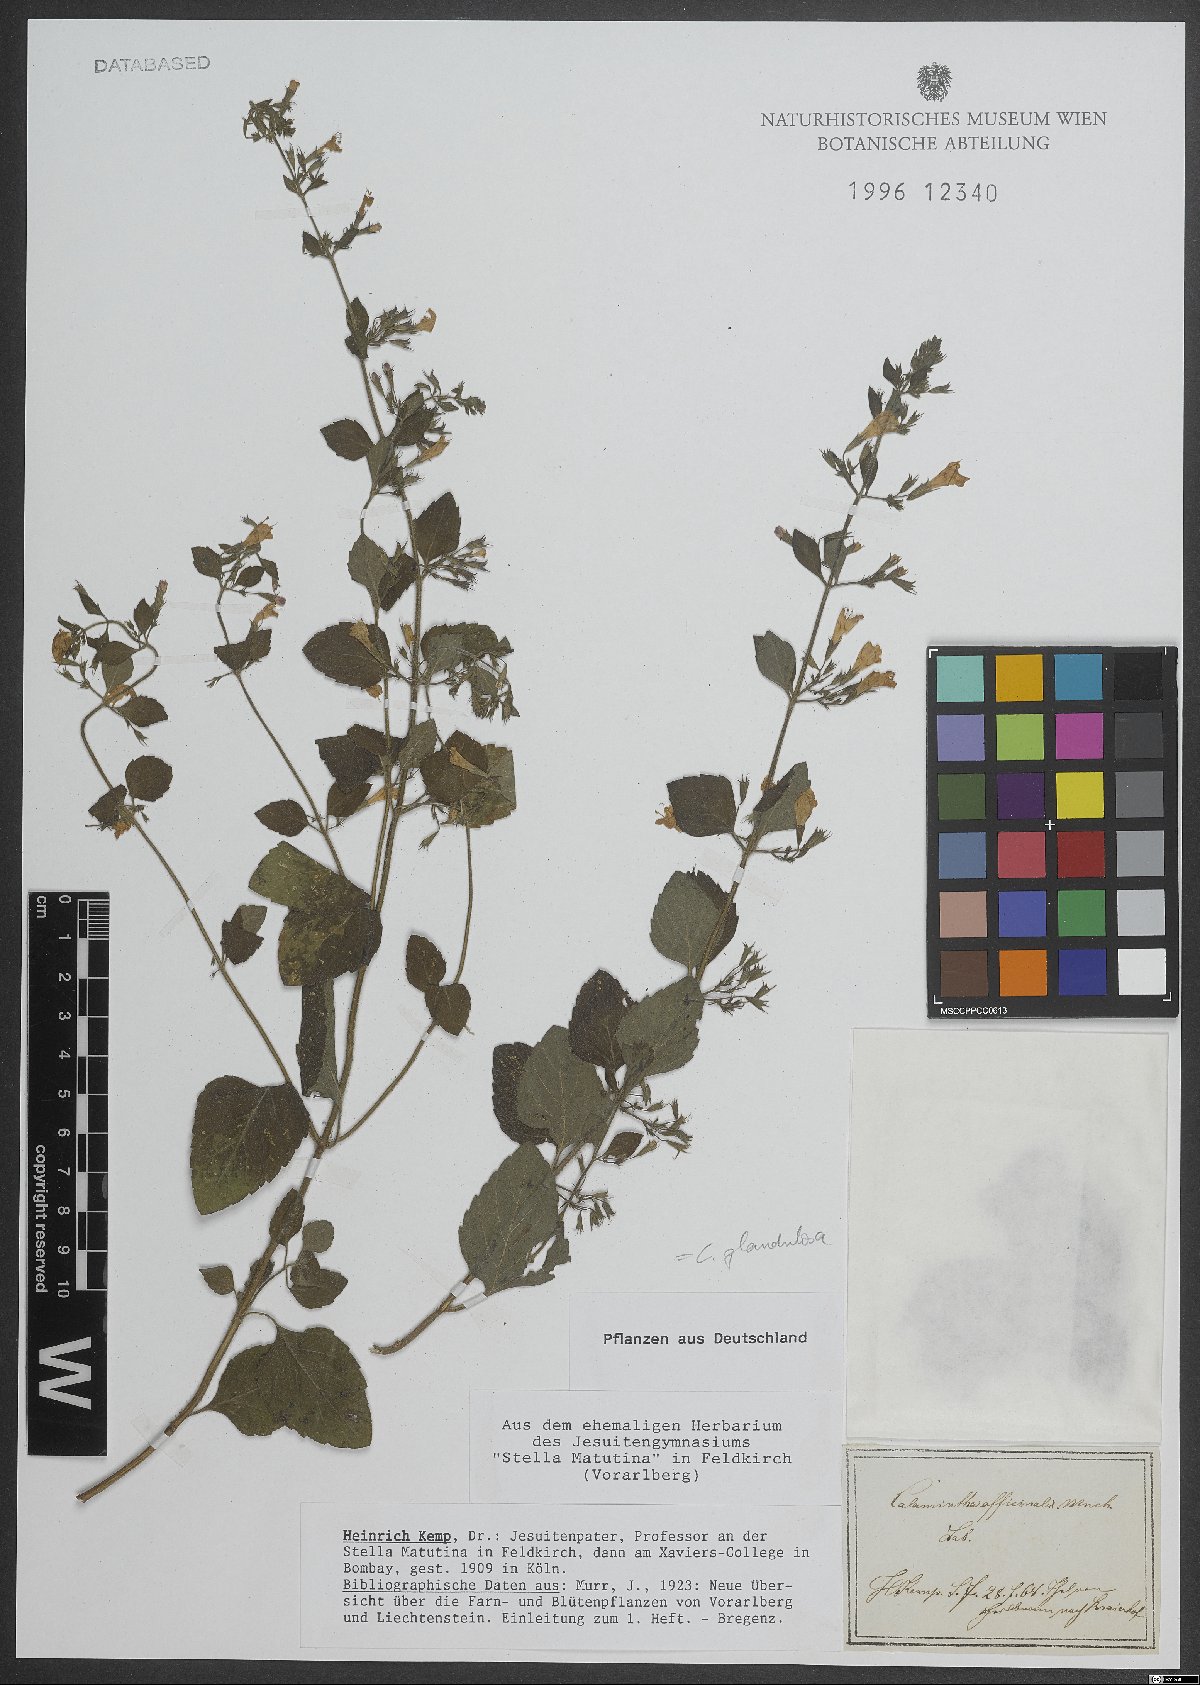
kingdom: Plantae
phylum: Tracheophyta
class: Magnoliopsida
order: Lamiales
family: Lamiaceae
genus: Clinopodium
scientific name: Clinopodium nepeta
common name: Lesser calamint
